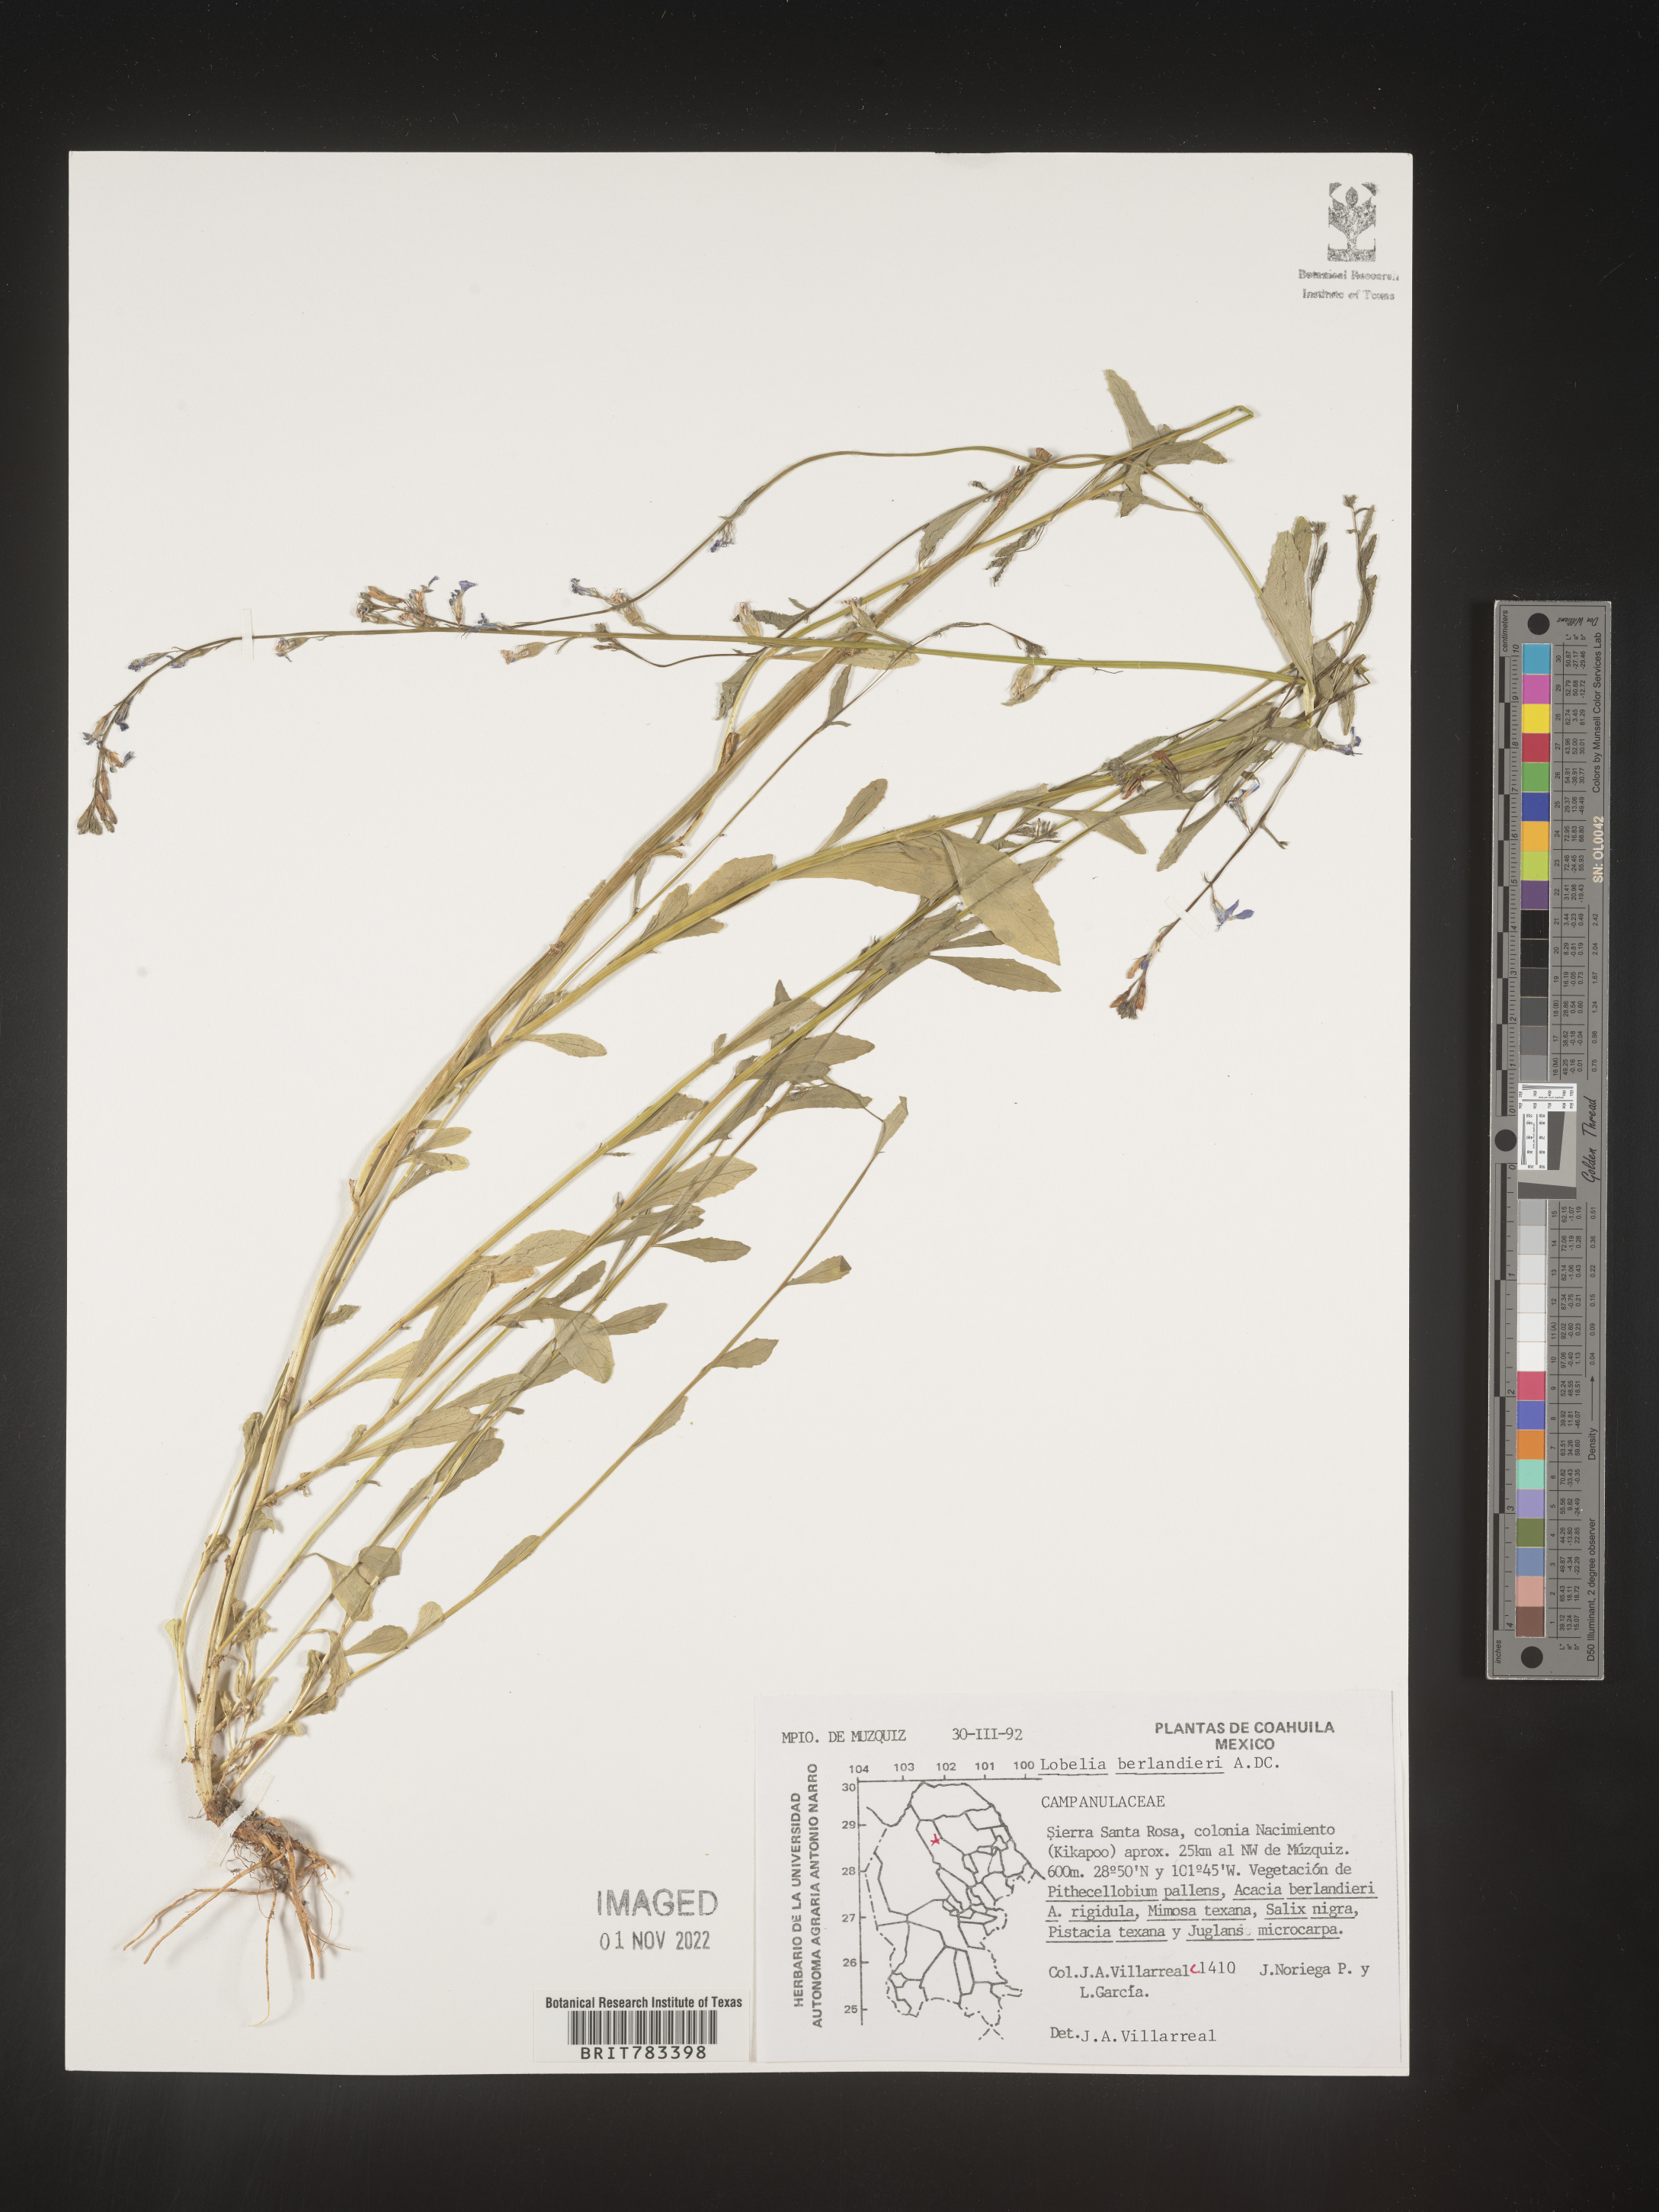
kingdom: Plantae
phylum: Tracheophyta
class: Magnoliopsida
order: Asterales
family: Campanulaceae
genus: Lobelia
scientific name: Lobelia
